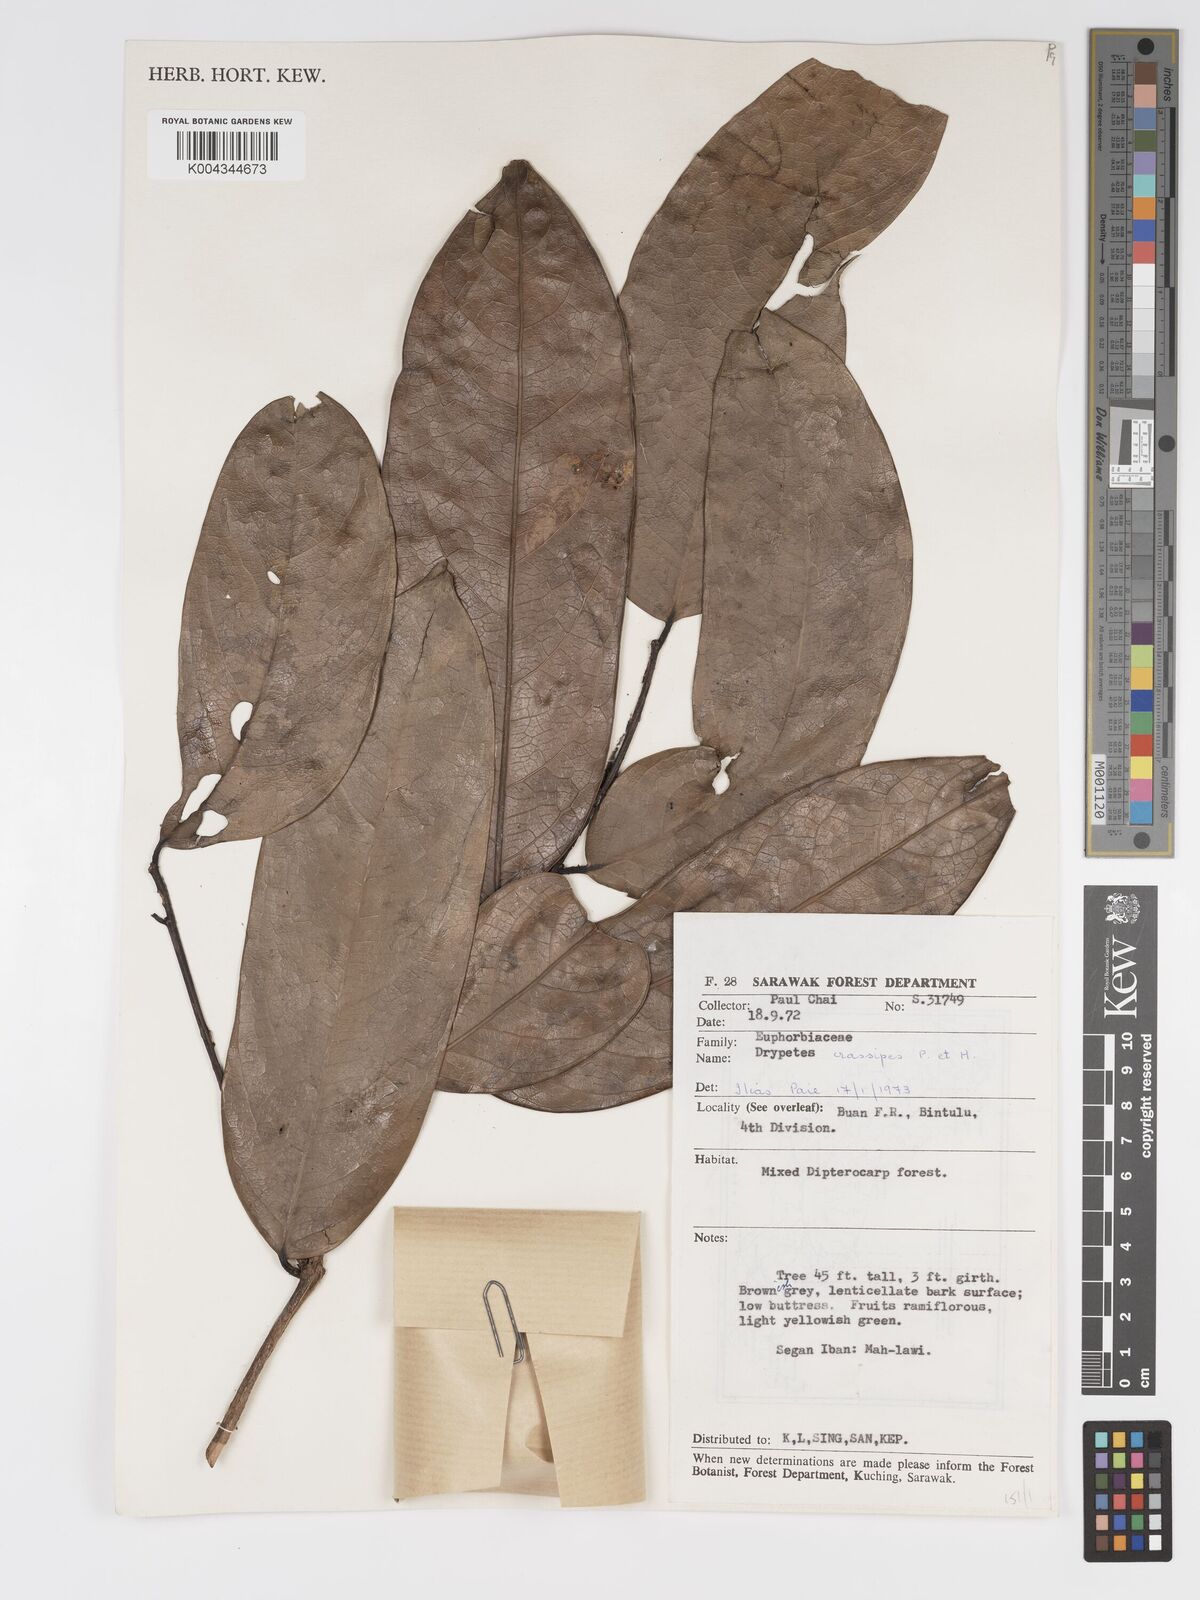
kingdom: Plantae
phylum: Tracheophyta
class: Magnoliopsida
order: Malpighiales
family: Putranjivaceae
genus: Drypetes
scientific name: Drypetes longifolia
